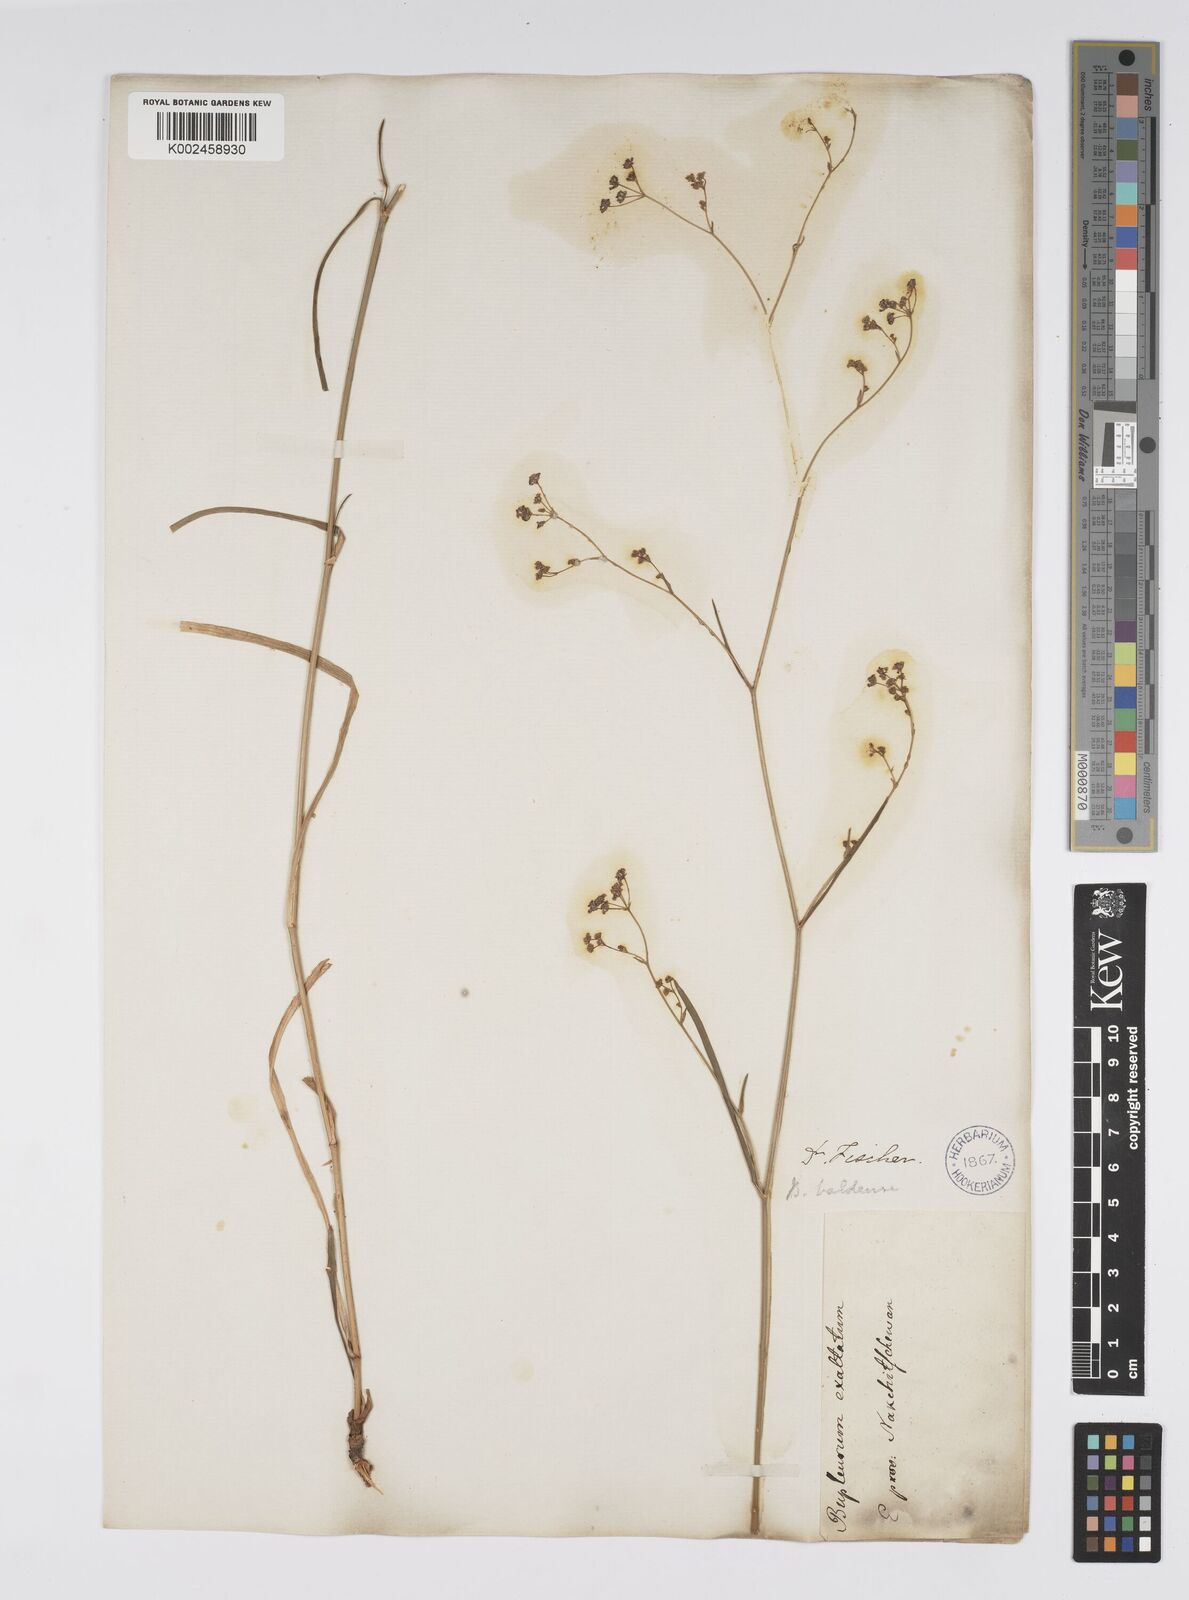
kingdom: Plantae
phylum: Tracheophyta
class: Magnoliopsida
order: Apiales
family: Apiaceae
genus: Bupleurum
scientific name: Bupleurum falcatum
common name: Sickle-leaved hare's-ear
